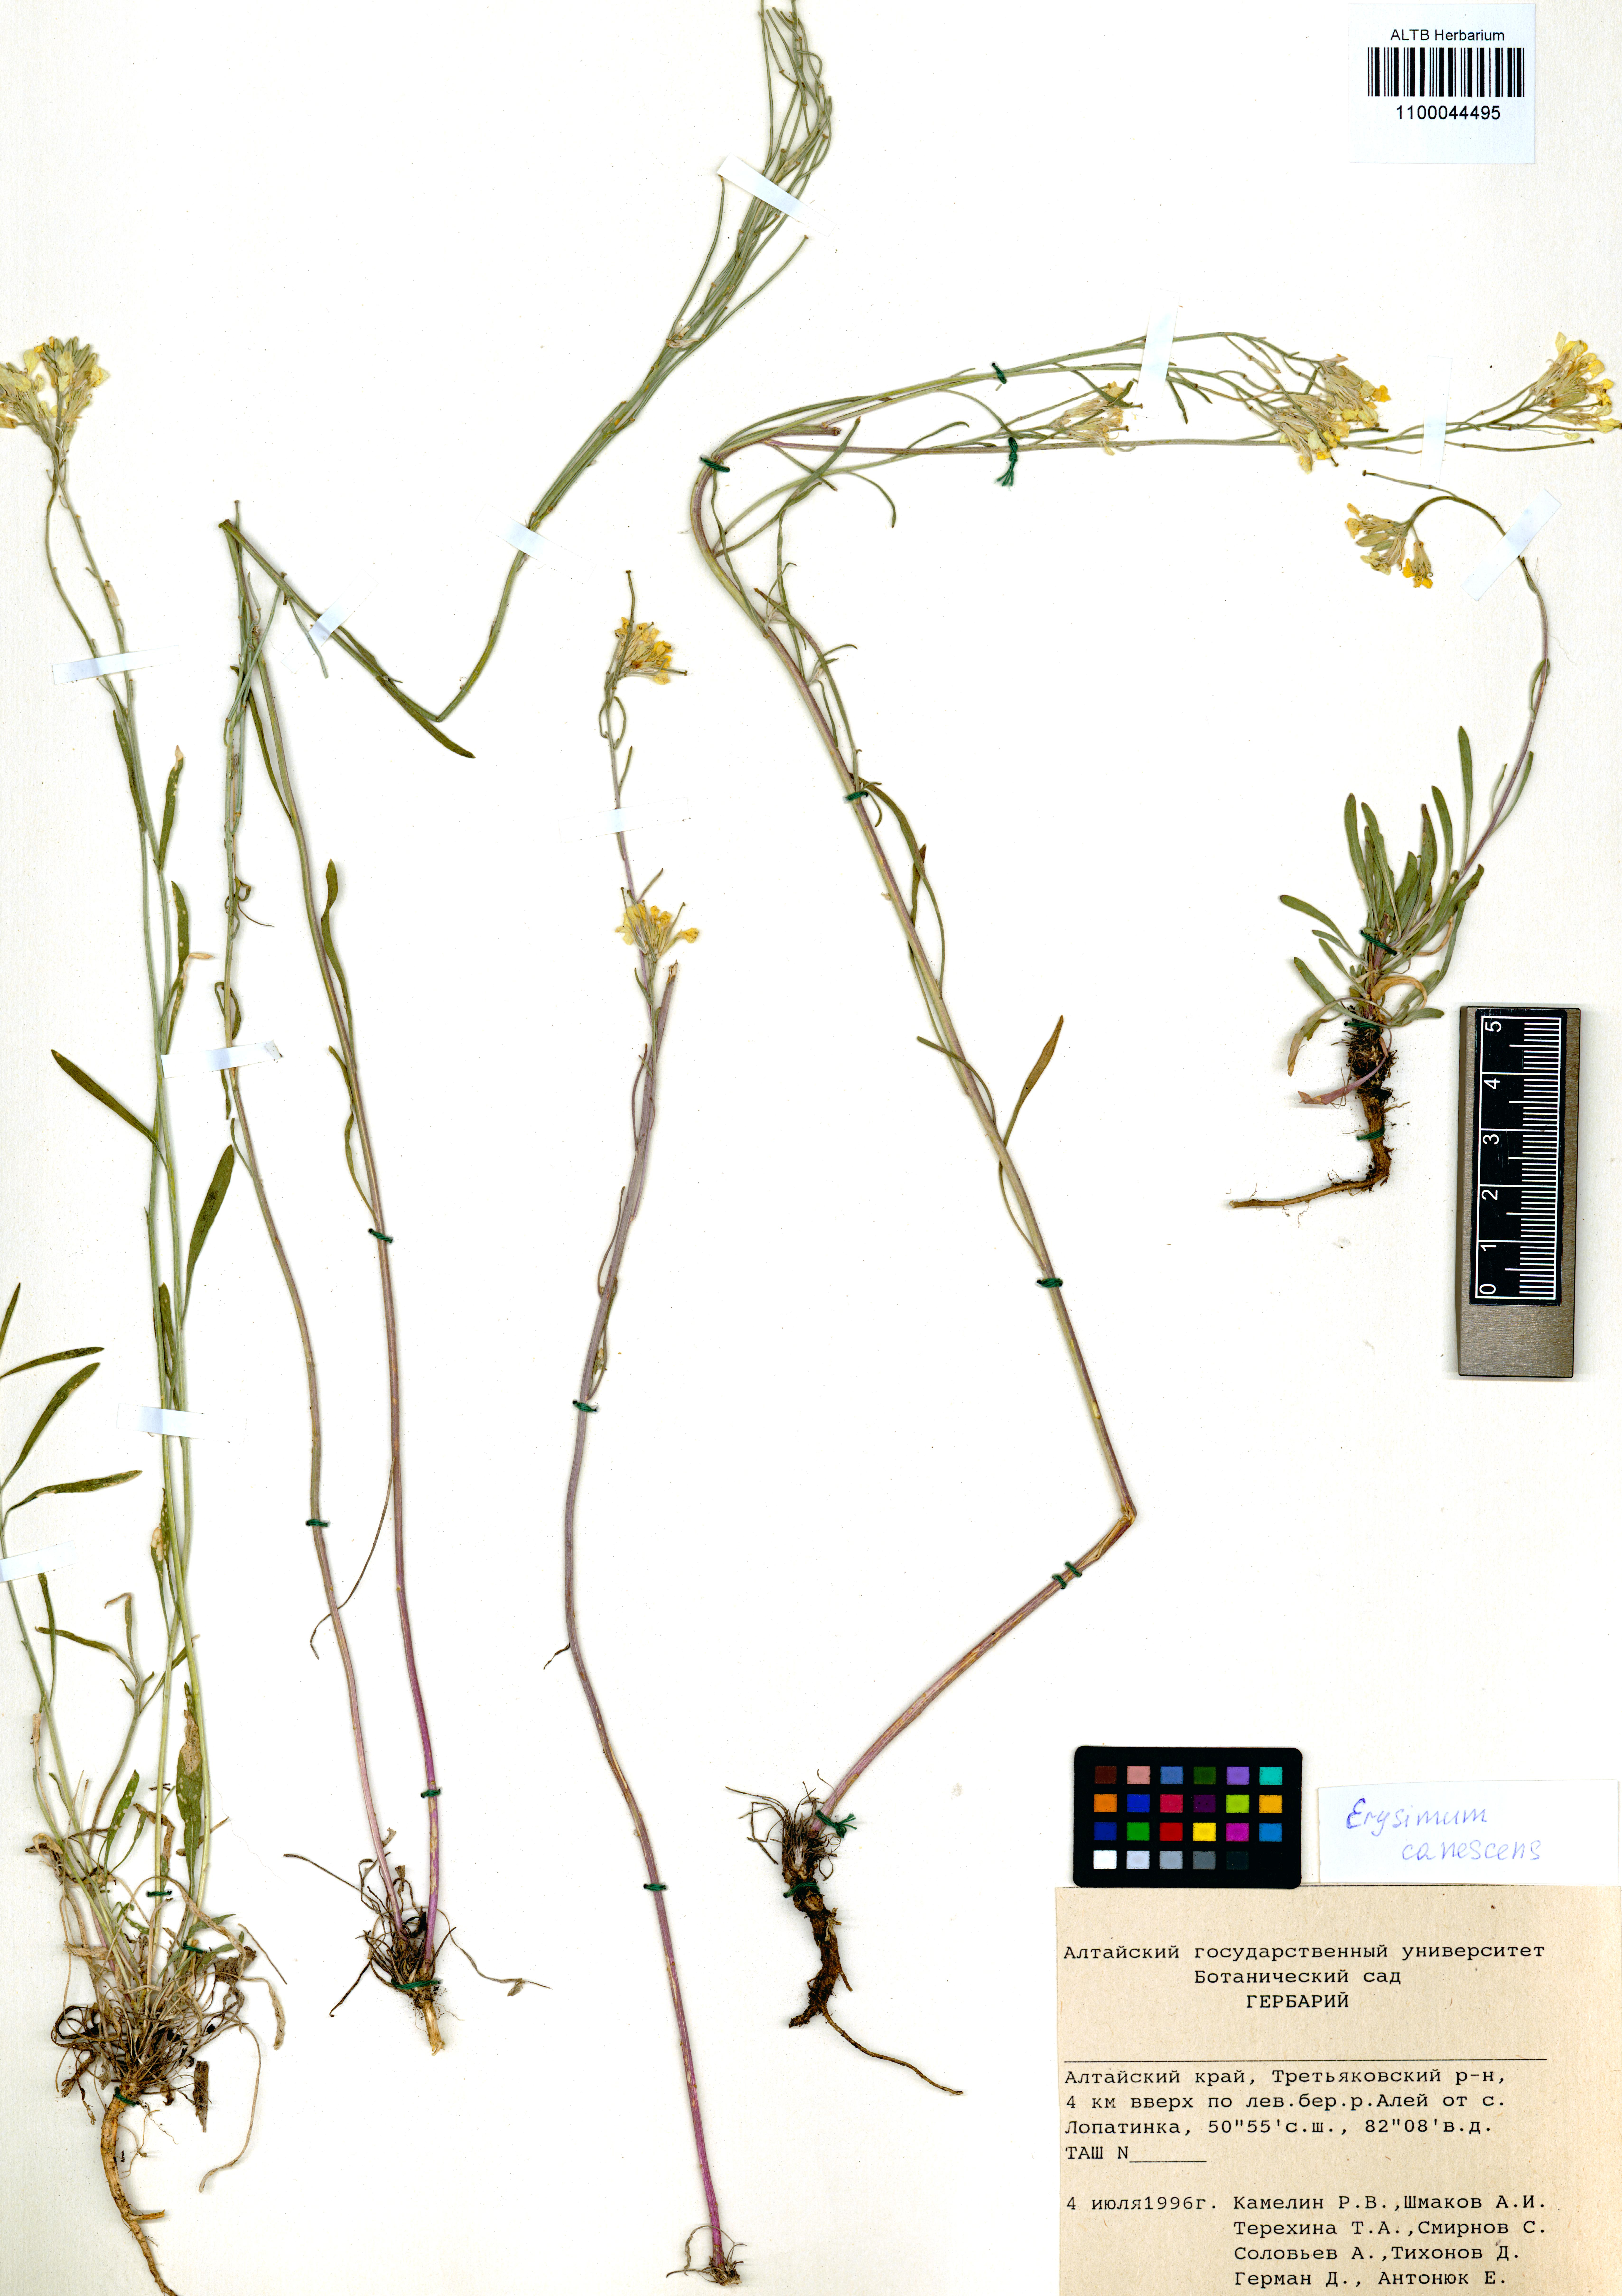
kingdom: Plantae
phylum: Tracheophyta
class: Magnoliopsida
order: Brassicales
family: Brassicaceae
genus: Erysimum
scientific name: Erysimum canescens
